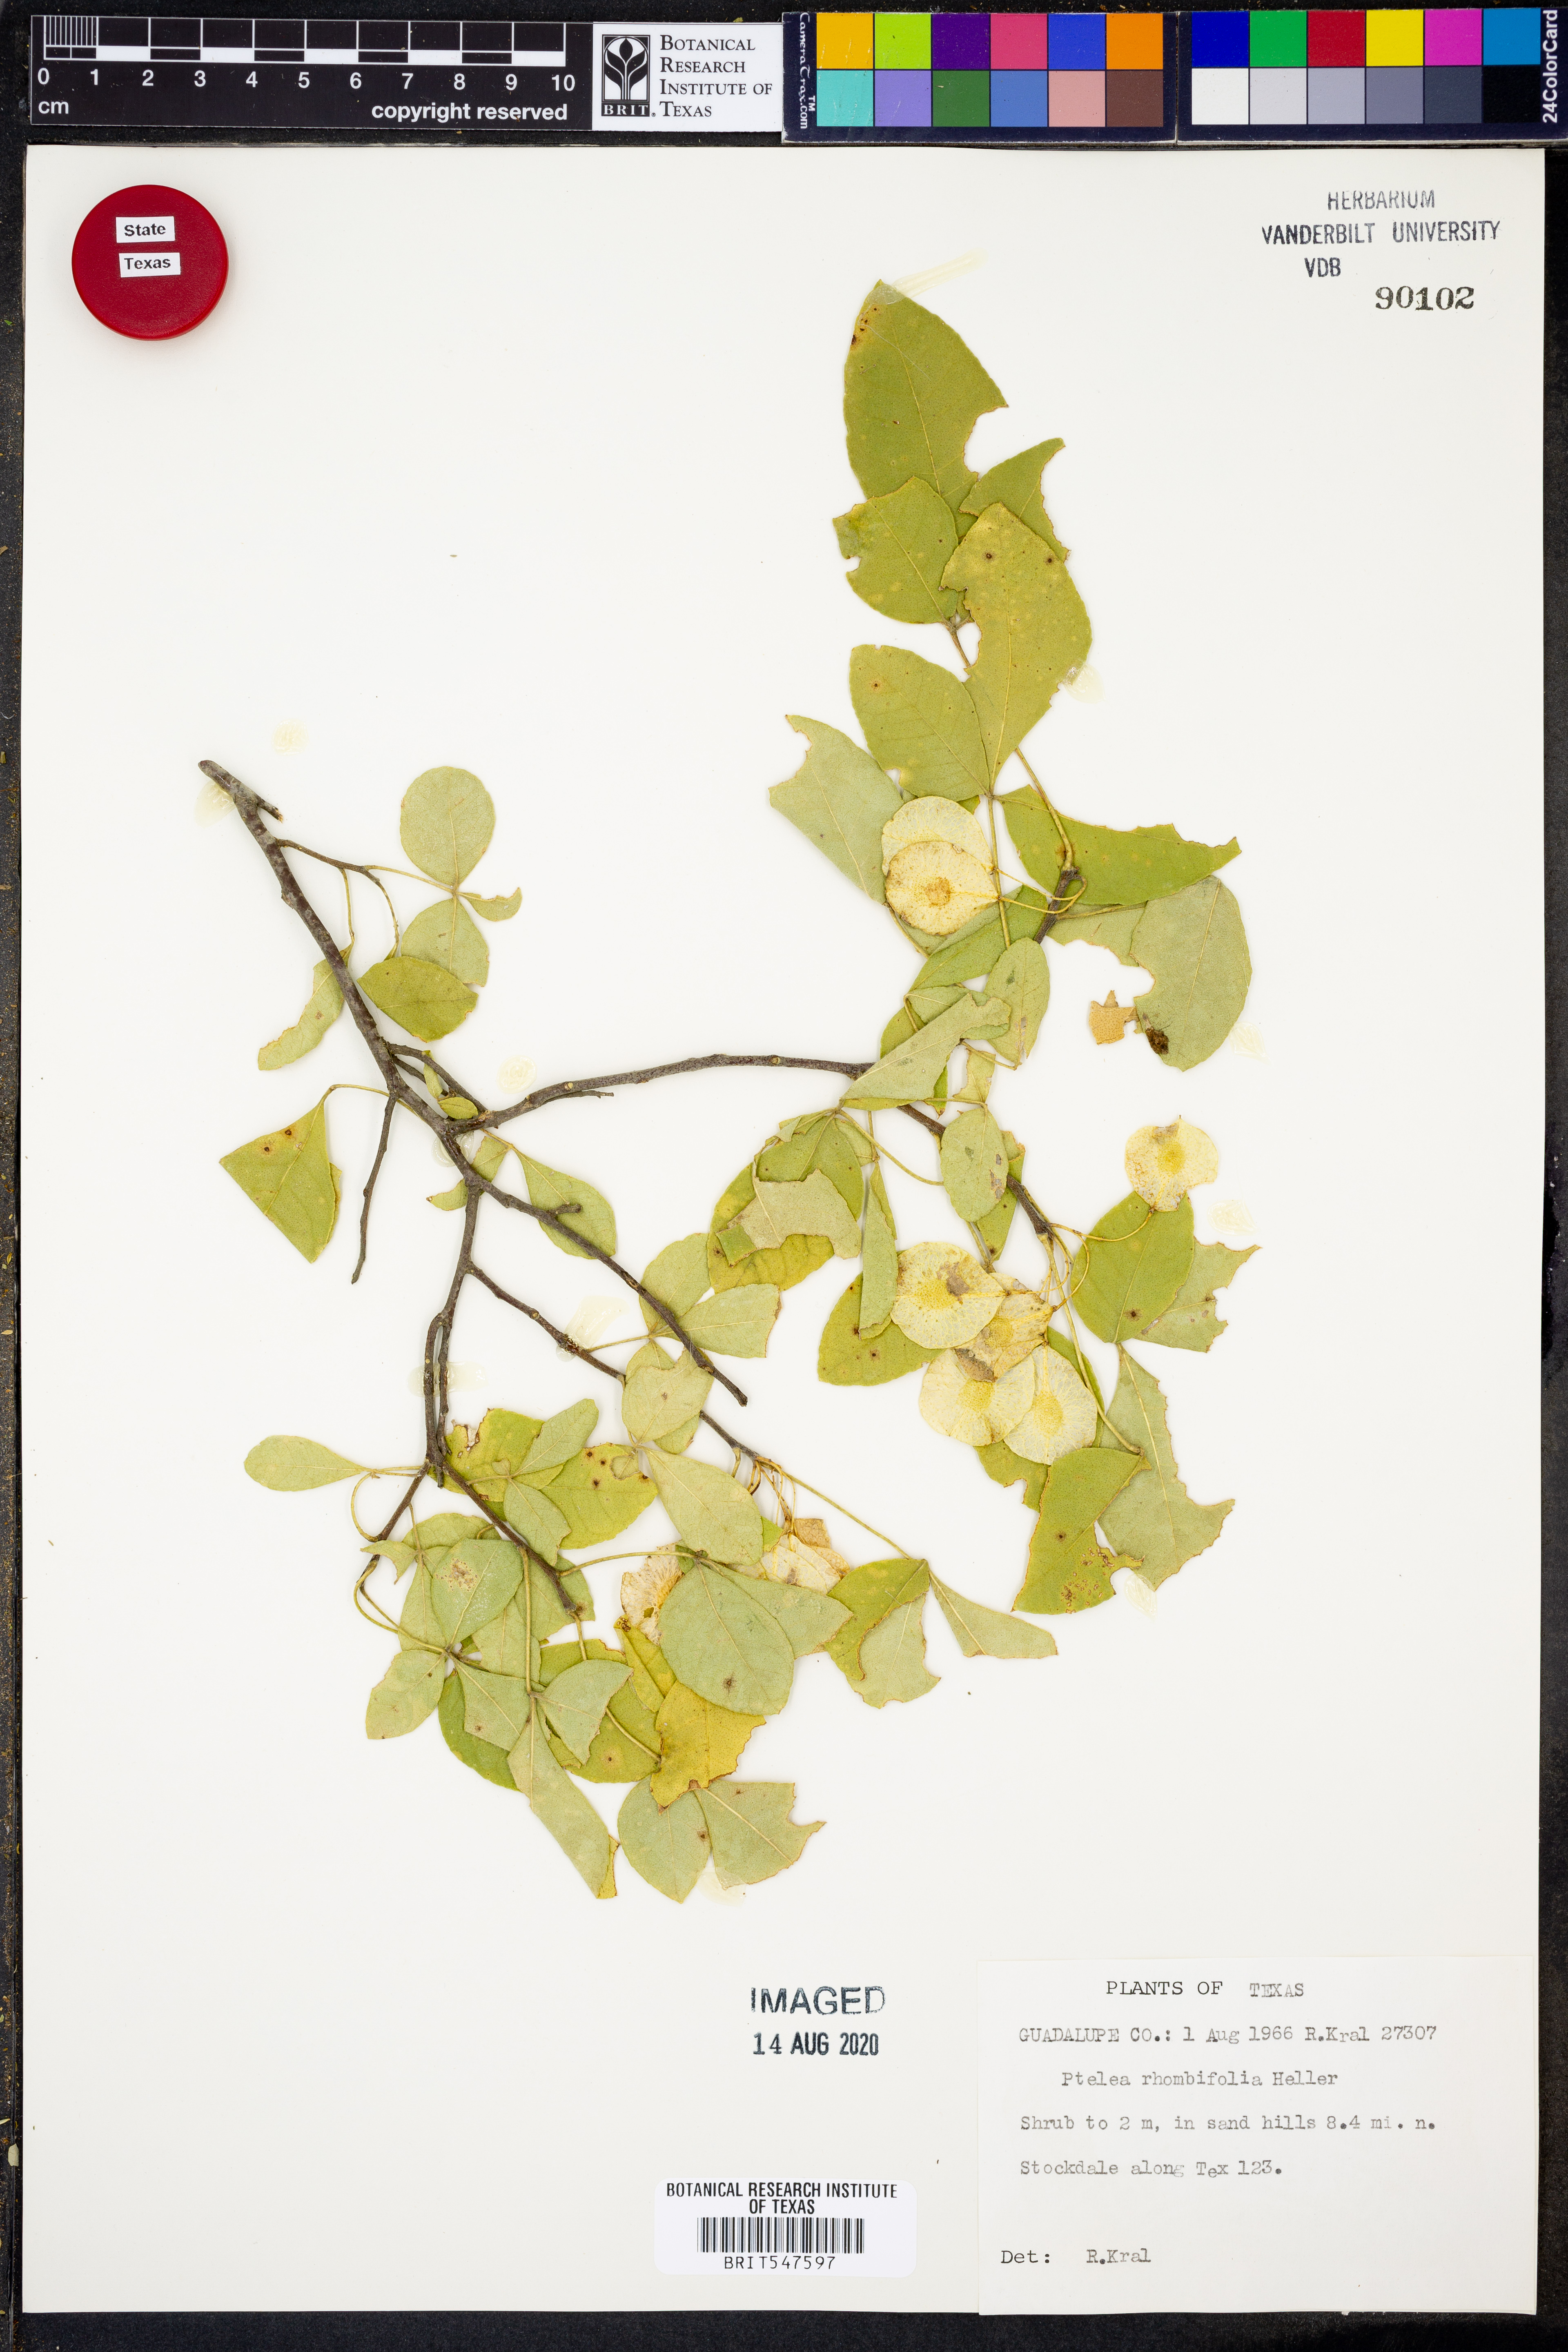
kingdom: Plantae
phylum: Tracheophyta
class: Magnoliopsida
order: Sapindales
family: Rutaceae
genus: Ptelea
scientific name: Ptelea trifoliata
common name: Common hop-tree
